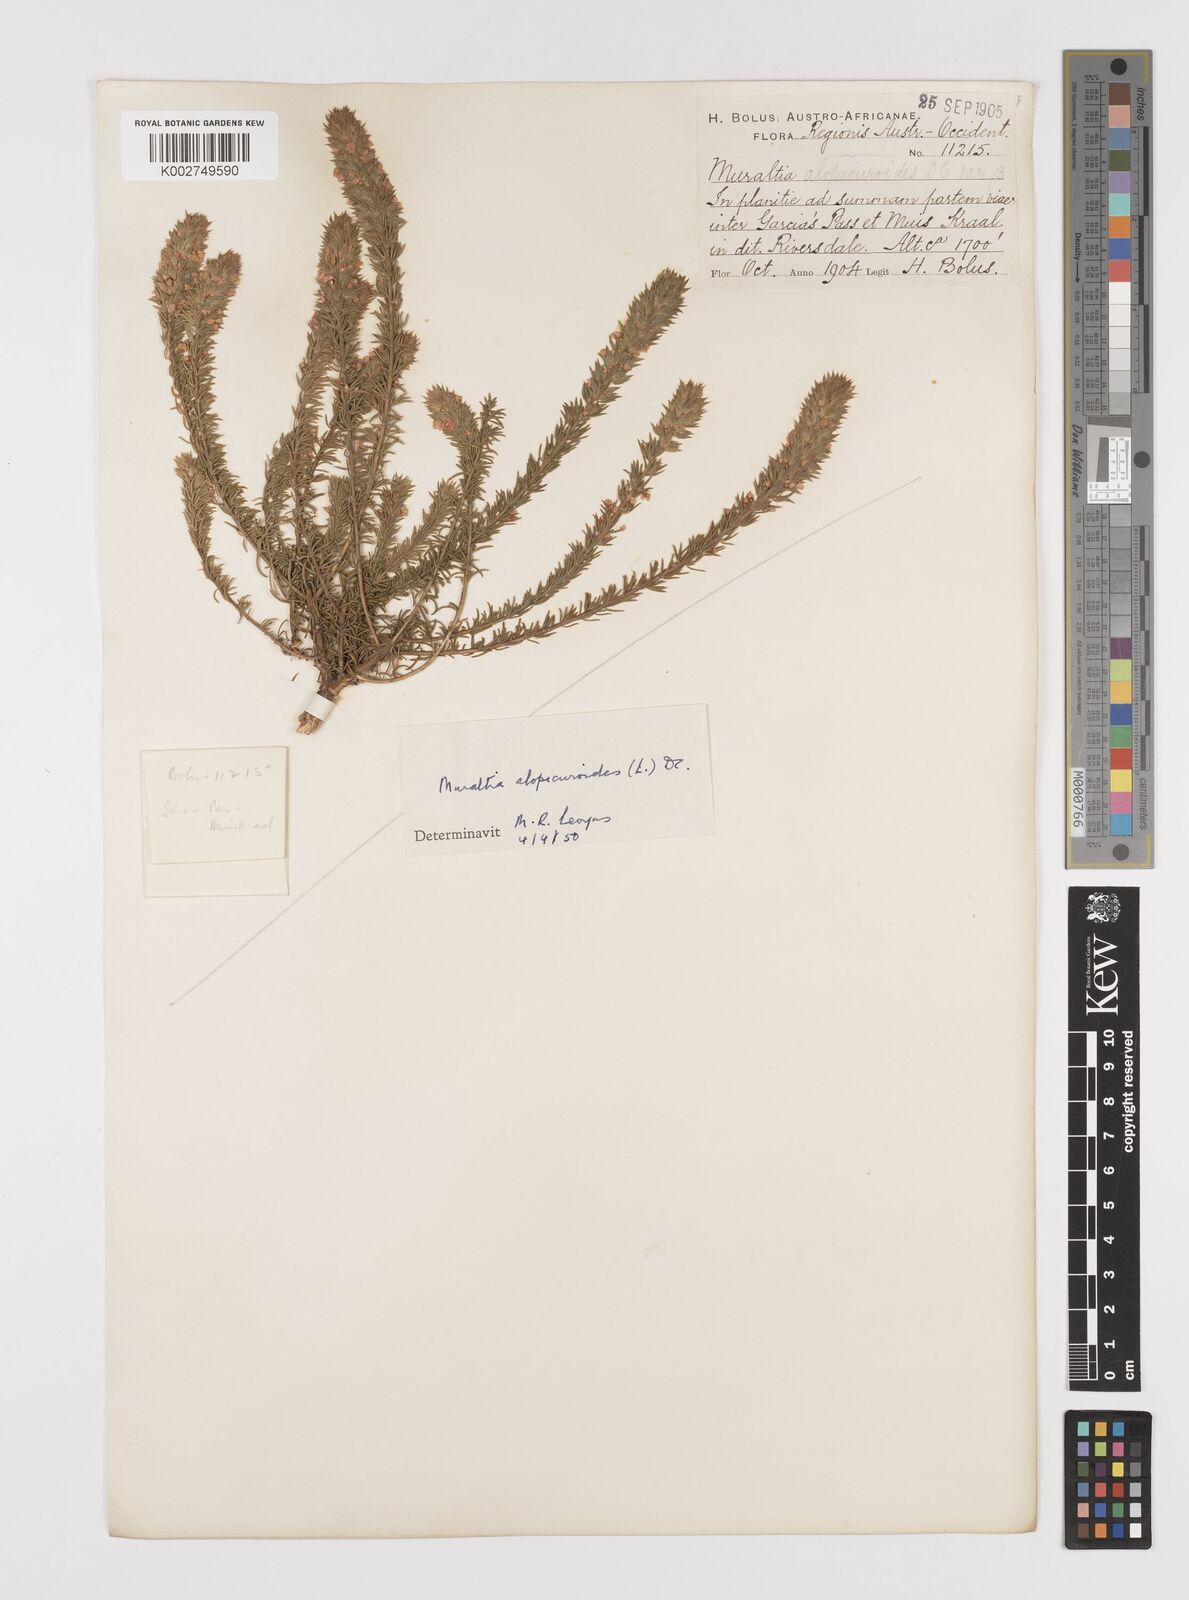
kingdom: Plantae
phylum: Tracheophyta
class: Magnoliopsida
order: Fabales
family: Polygalaceae
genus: Muraltia
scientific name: Muraltia alopecuroides
